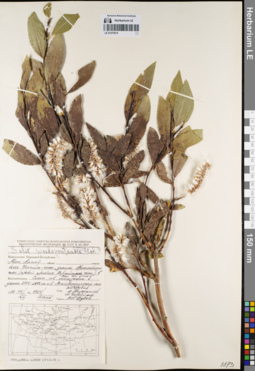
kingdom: Plantae
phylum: Tracheophyta
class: Magnoliopsida
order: Malpighiales
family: Salicaceae
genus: Salix
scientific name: Salix pseudopentandra
